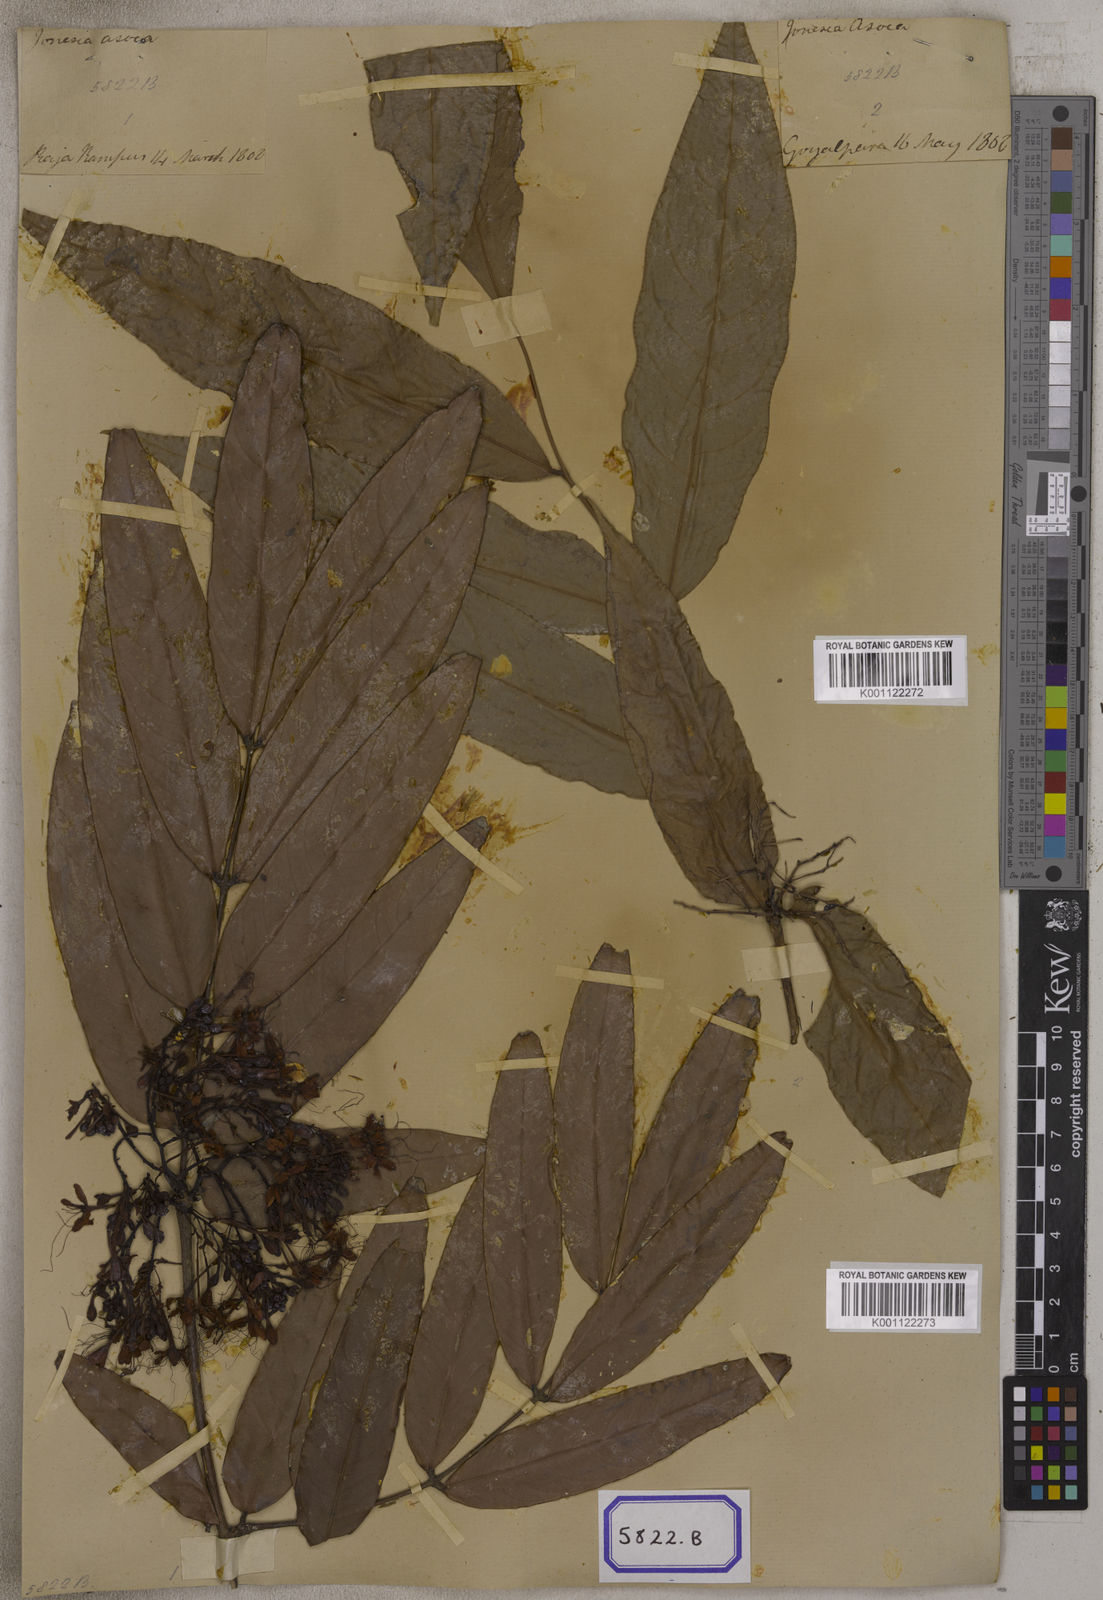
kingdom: Plantae
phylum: Tracheophyta
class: Magnoliopsida
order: Fabales
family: Fabaceae
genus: Saraca
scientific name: Saraca asoca
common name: Asoka-tree
